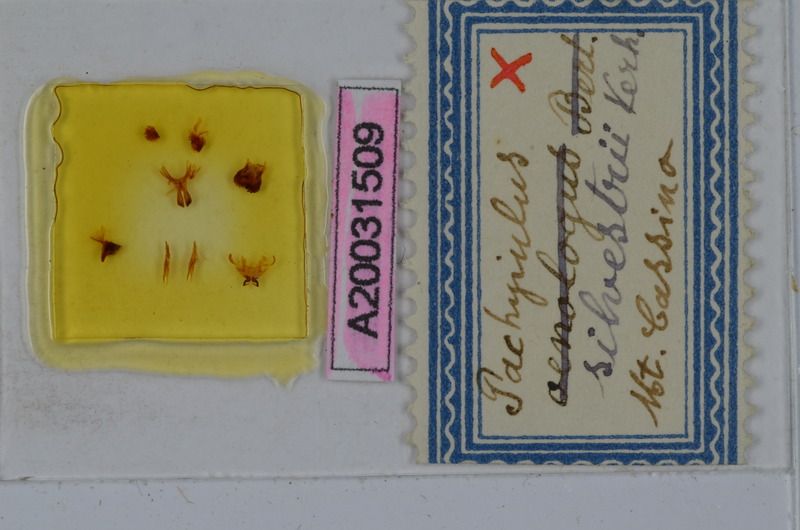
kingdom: Animalia
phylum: Arthropoda
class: Diplopoda
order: Julida
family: Julidae
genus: Pachyiulus
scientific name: Pachyiulus silvestrii
